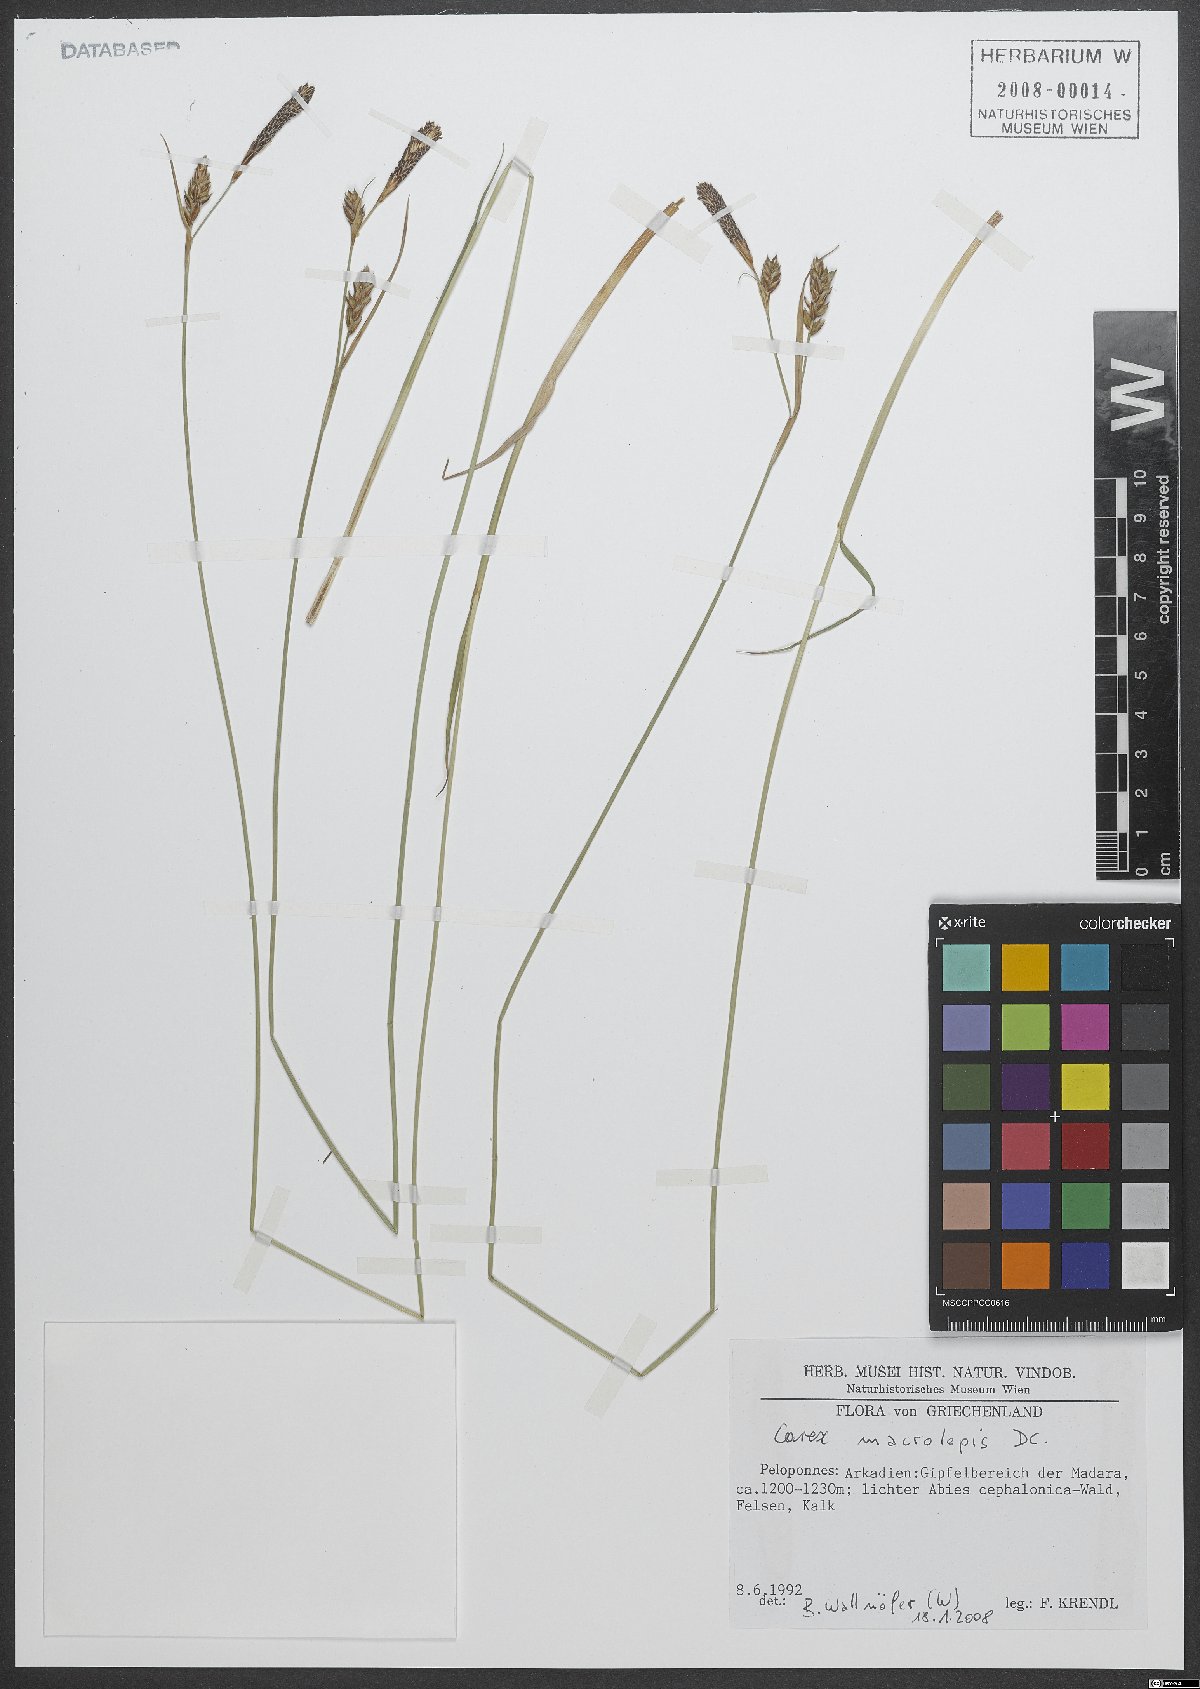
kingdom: Plantae
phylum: Tracheophyta
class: Liliopsida
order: Poales
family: Cyperaceae
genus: Carex
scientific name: Carex macrolepis
